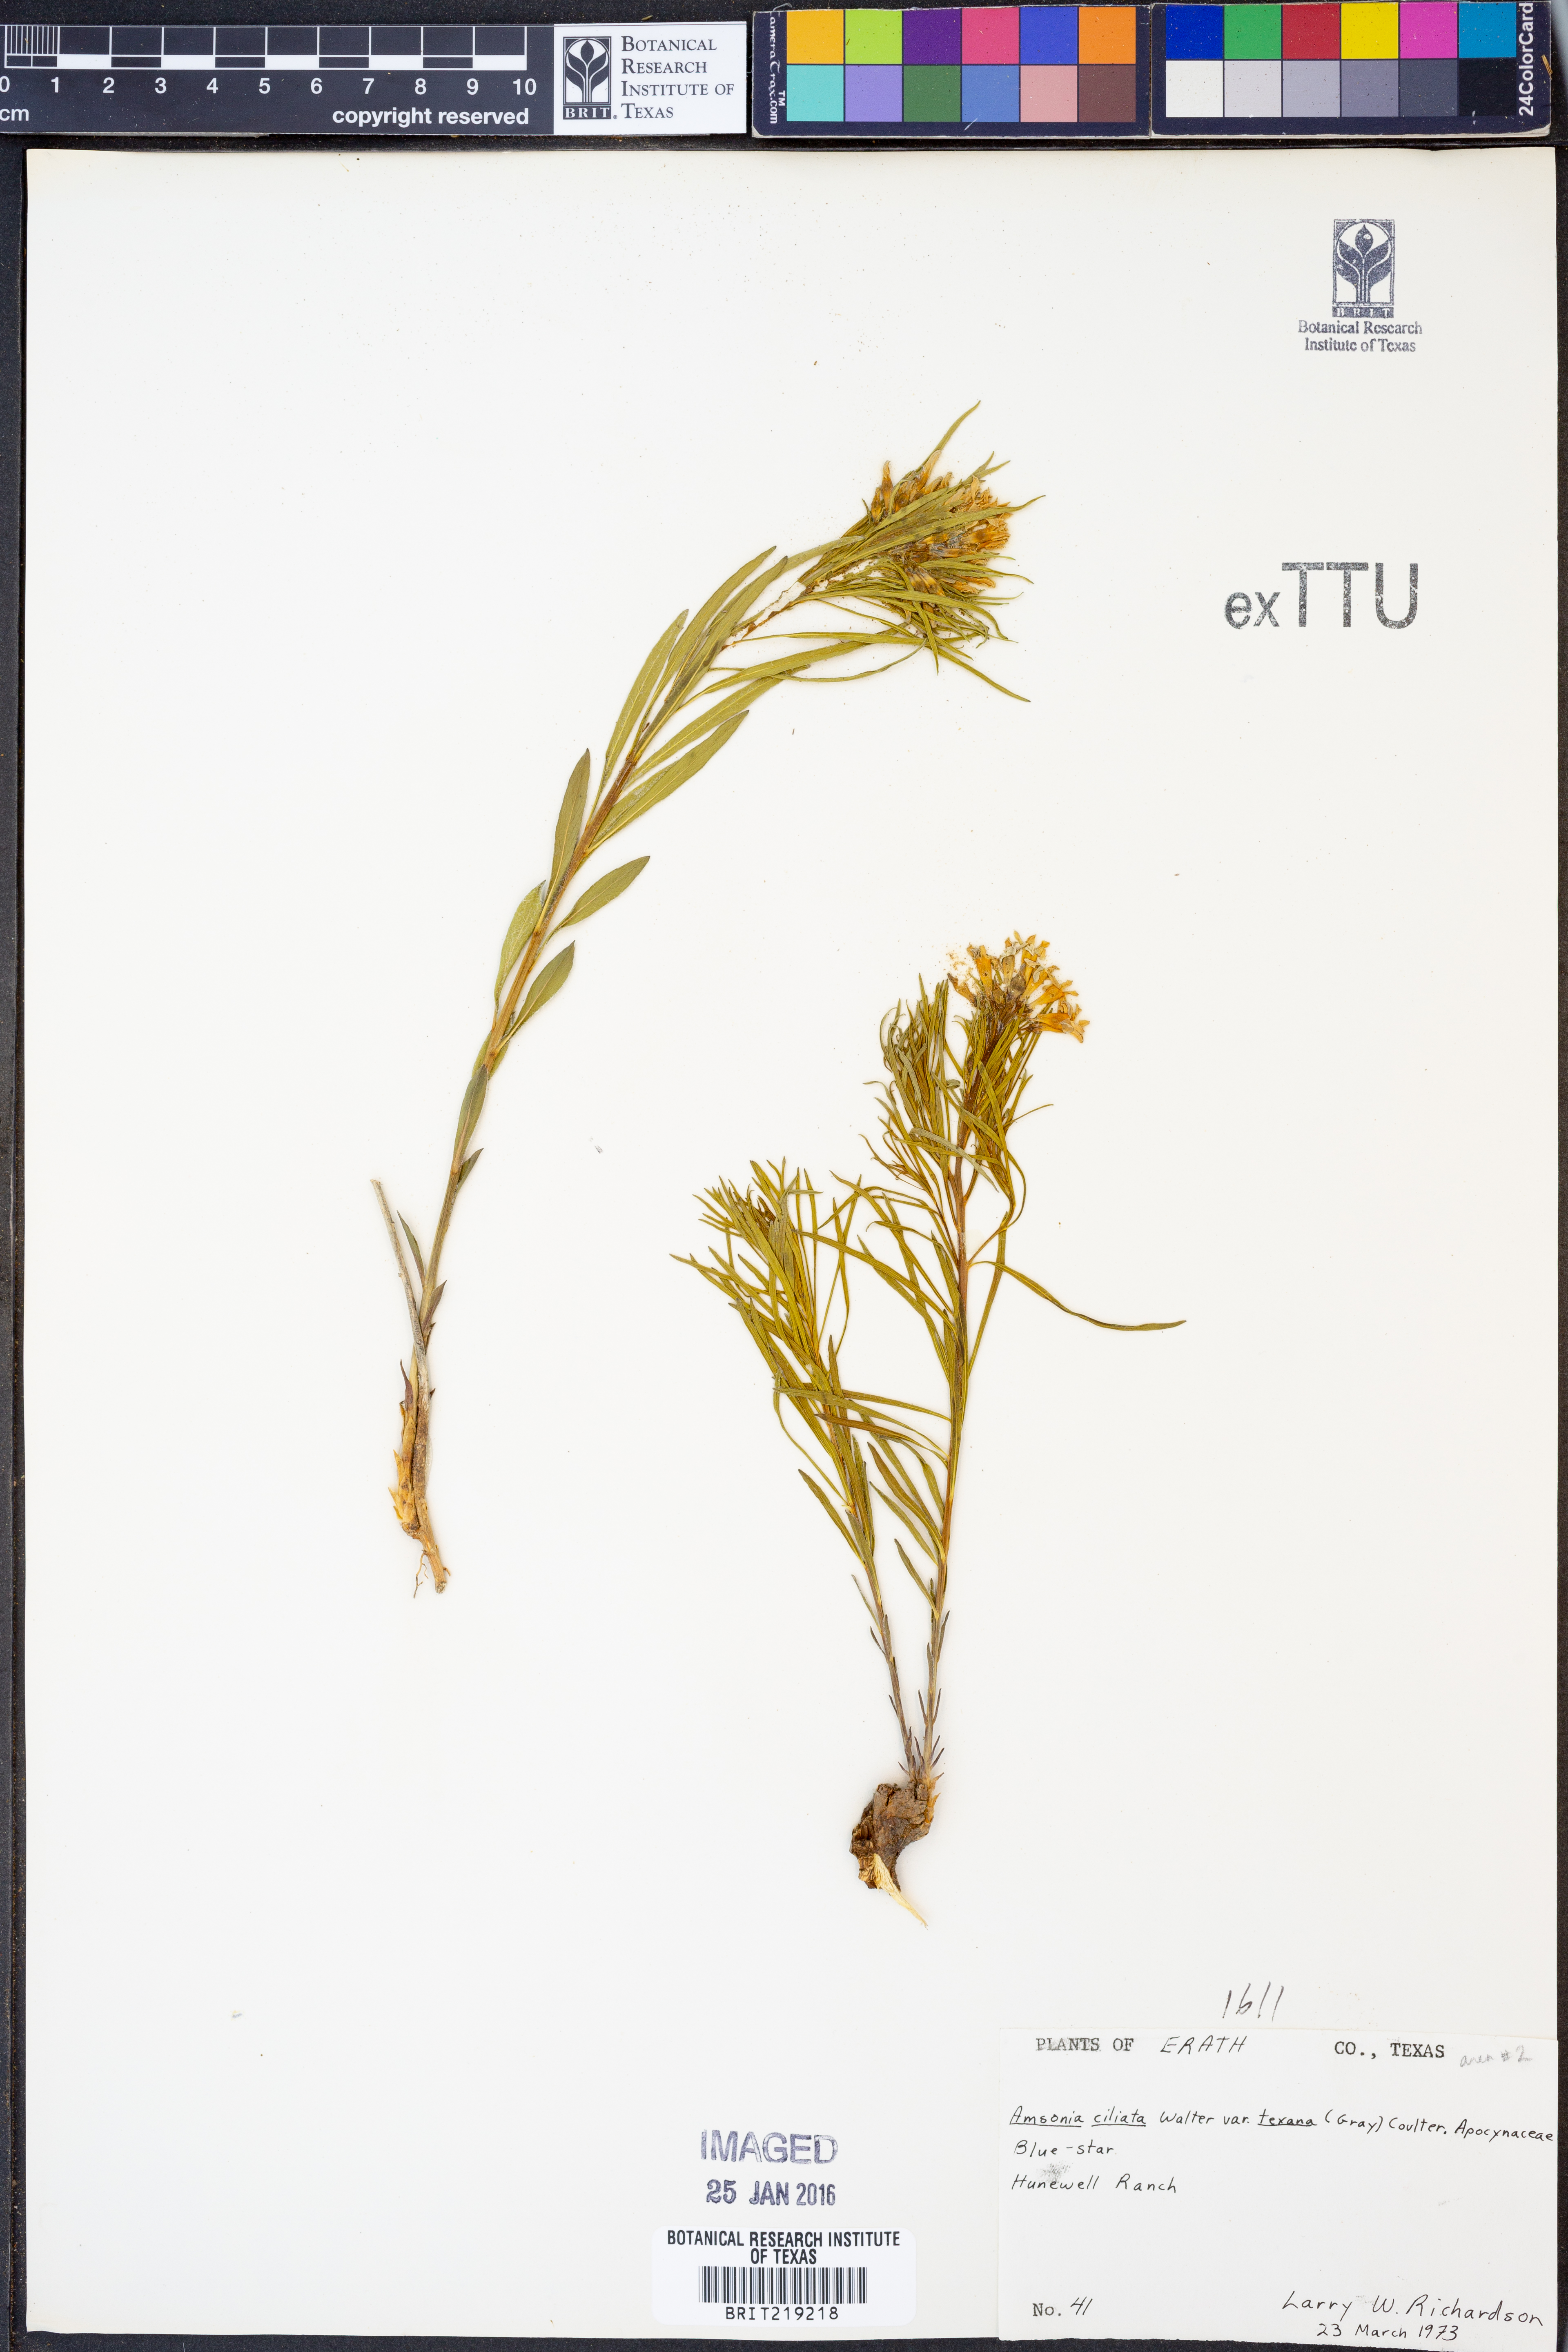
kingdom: Plantae
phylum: Tracheophyta
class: Magnoliopsida
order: Gentianales
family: Apocynaceae
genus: Amsonia
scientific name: Amsonia ciliata
